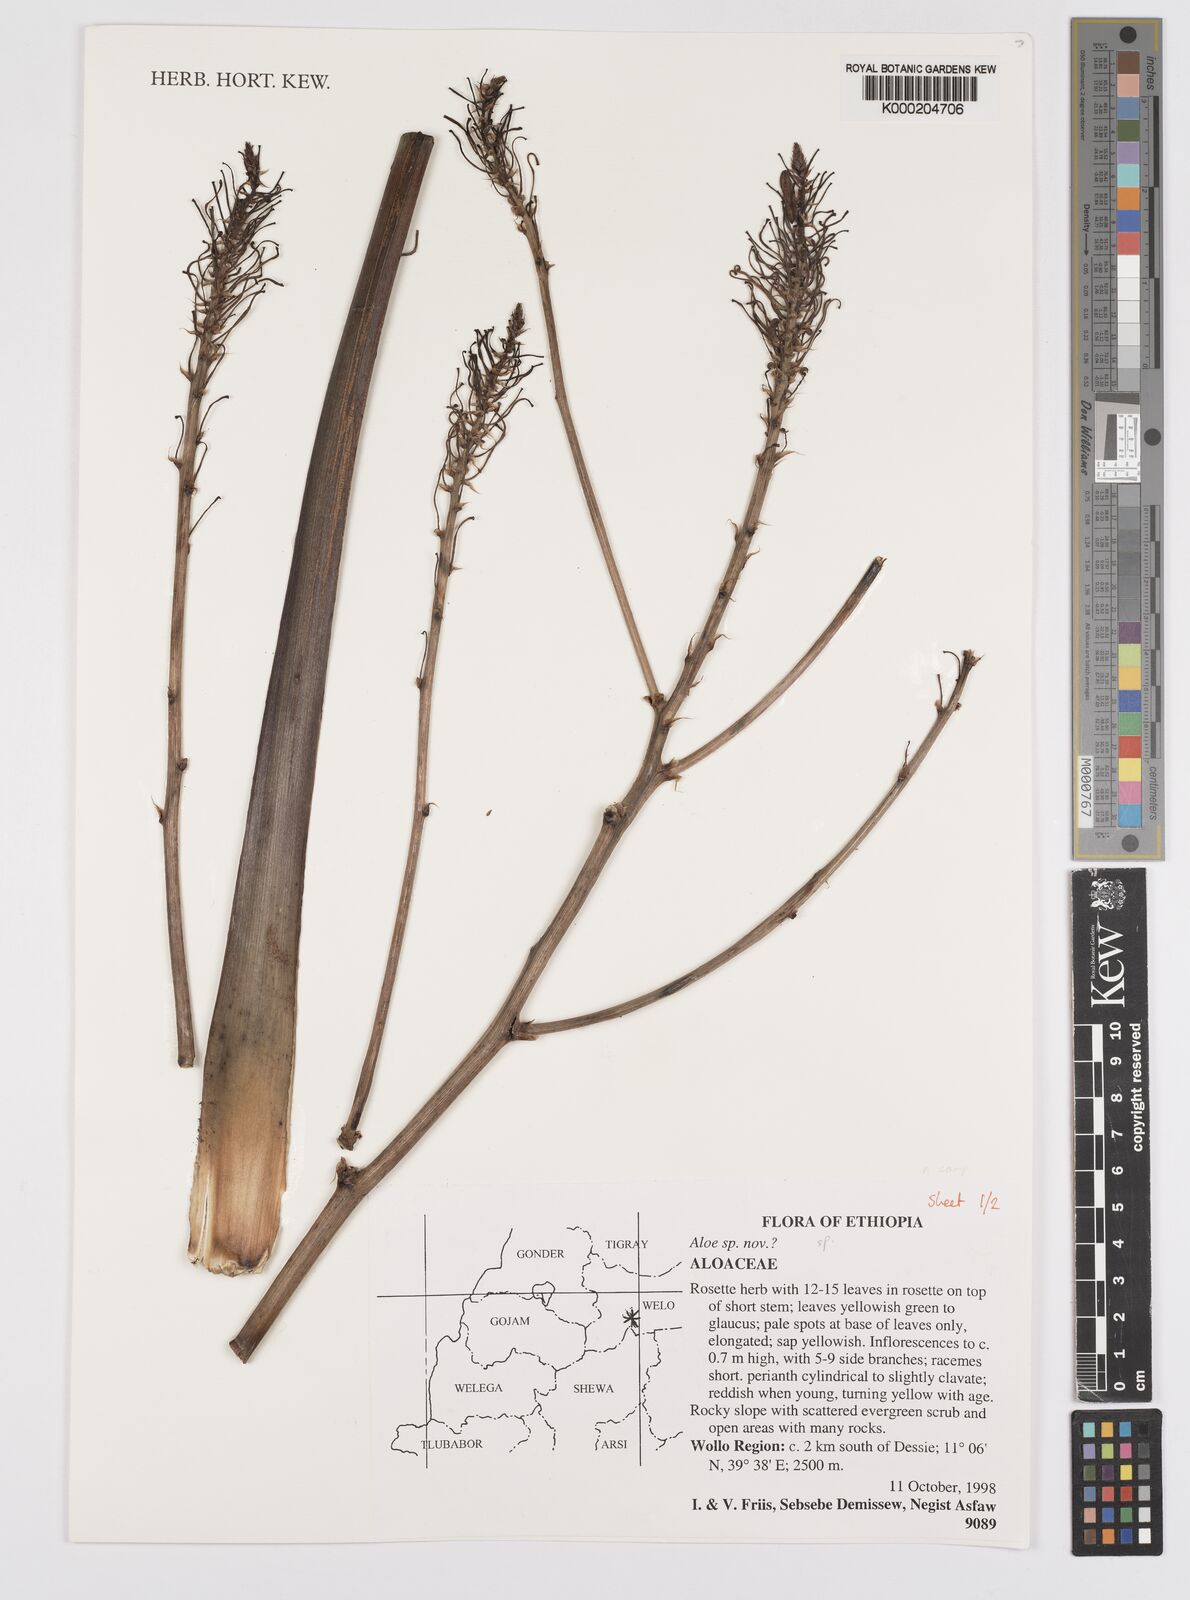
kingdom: Plantae
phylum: Tracheophyta
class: Liliopsida
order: Asparagales
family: Asphodelaceae
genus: Aloe
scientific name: Aloe
